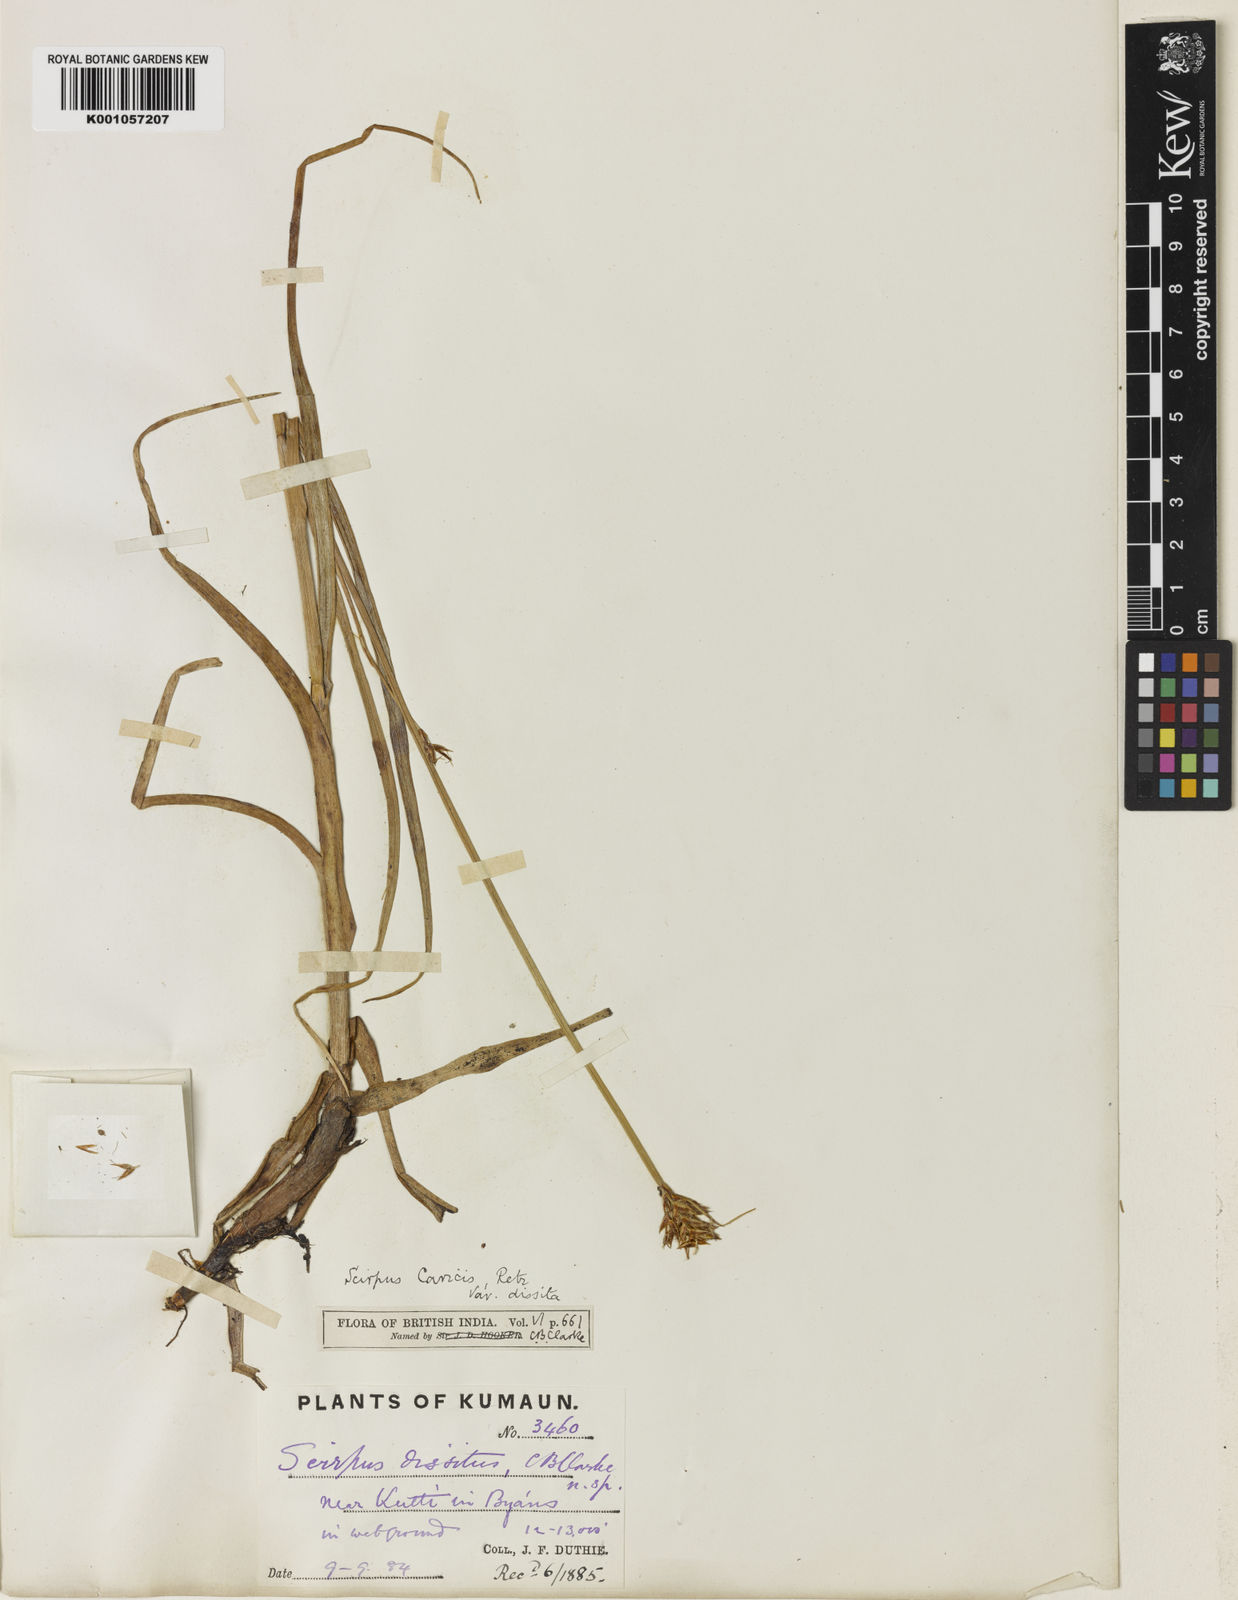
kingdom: Plantae
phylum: Tracheophyta
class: Liliopsida
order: Poales
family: Cyperaceae
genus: Blysmus
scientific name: Blysmus compressus
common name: Flat-sedge
